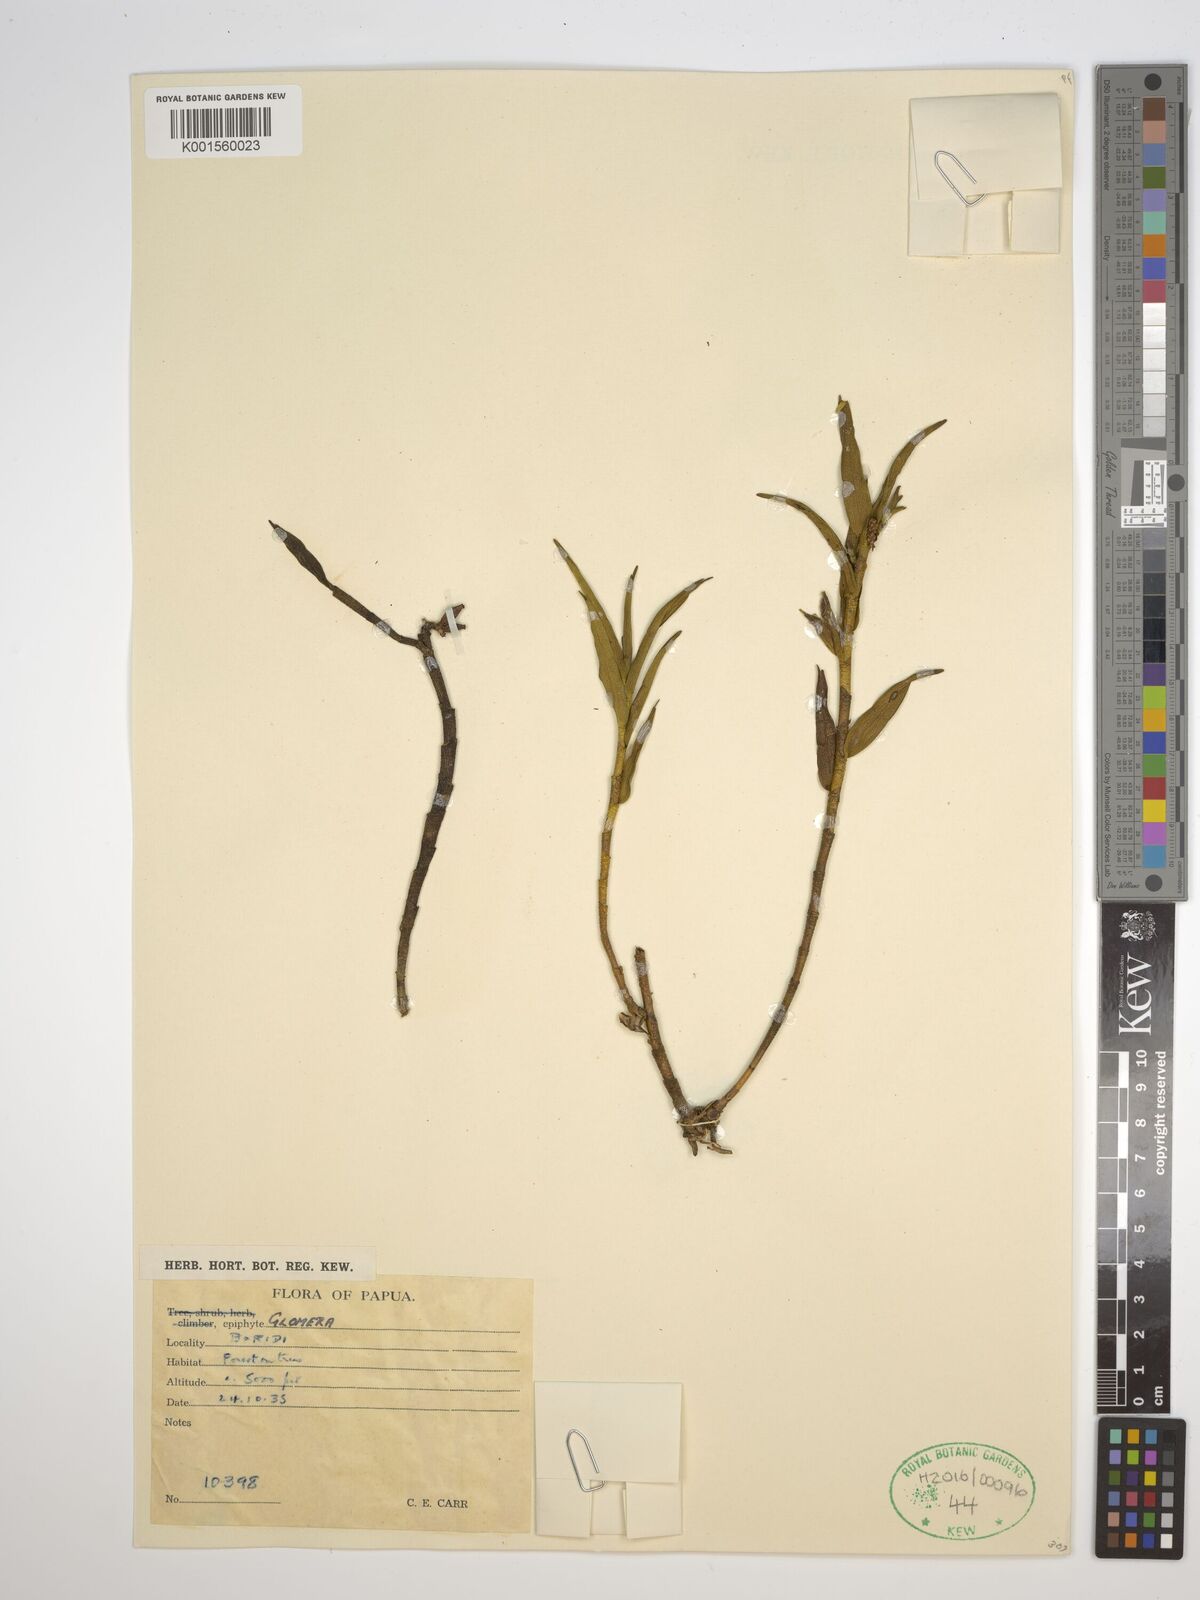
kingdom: Plantae
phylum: Tracheophyta
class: Liliopsida
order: Asparagales
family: Orchidaceae
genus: Glomera
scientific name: Glomera
